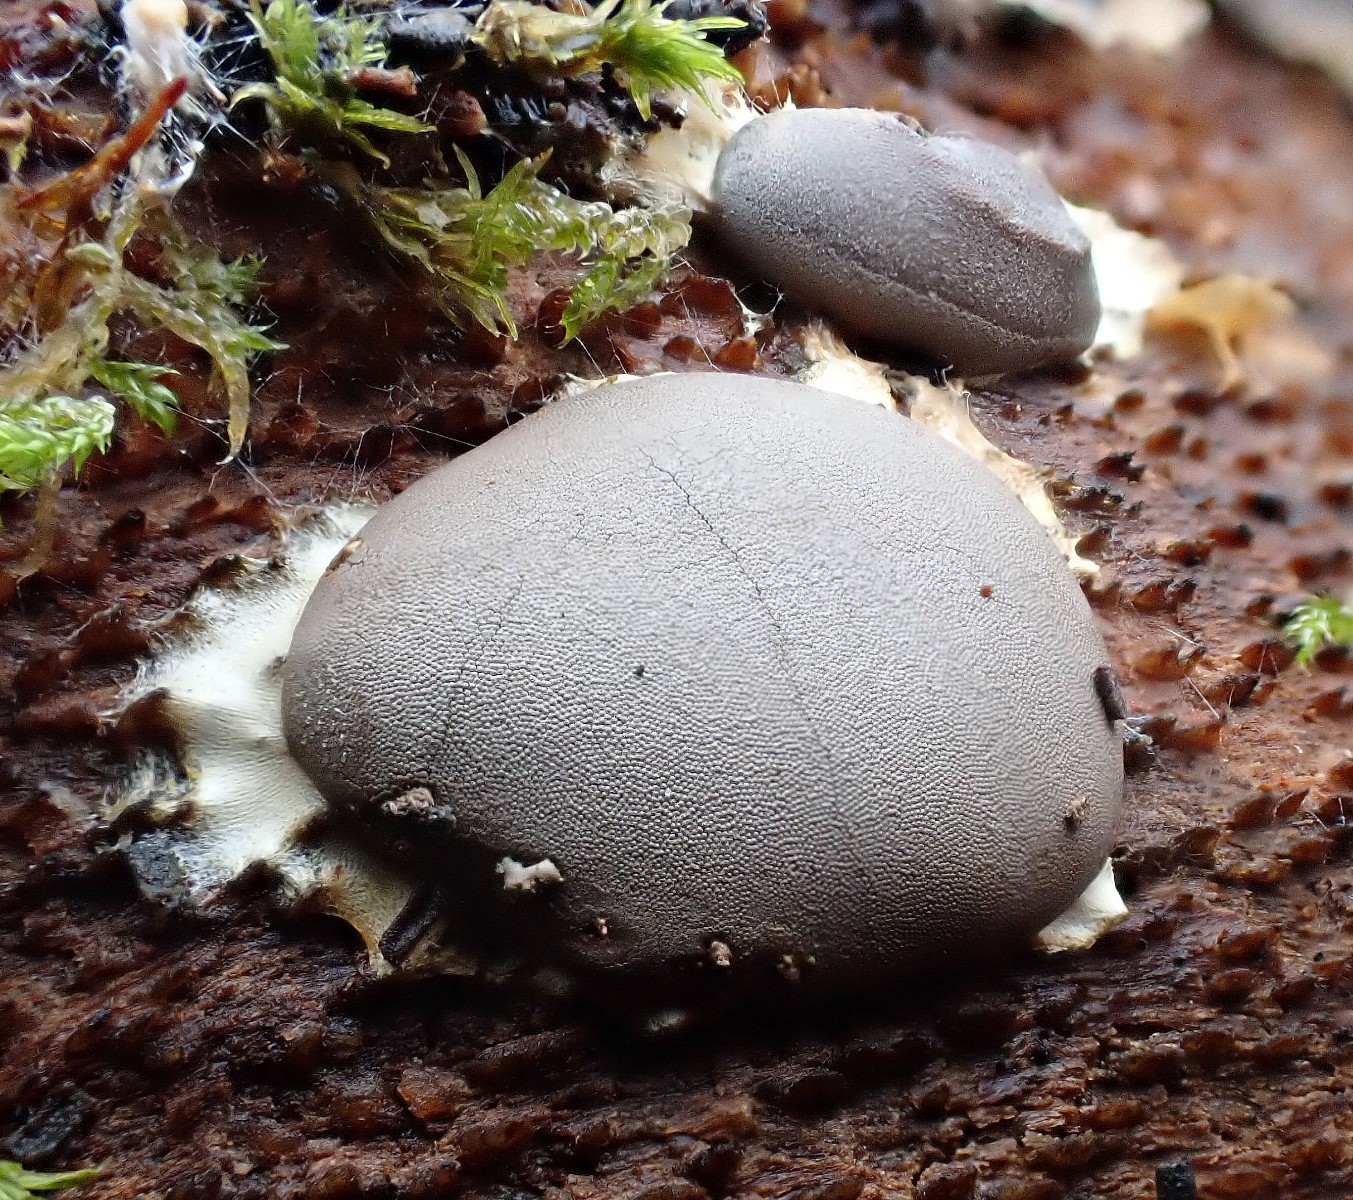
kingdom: Protozoa
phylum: Mycetozoa
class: Myxomycetes
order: Trichiales
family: Dictydiaethaliaceae
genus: Dictydiaethalium
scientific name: Dictydiaethalium plumbeum
